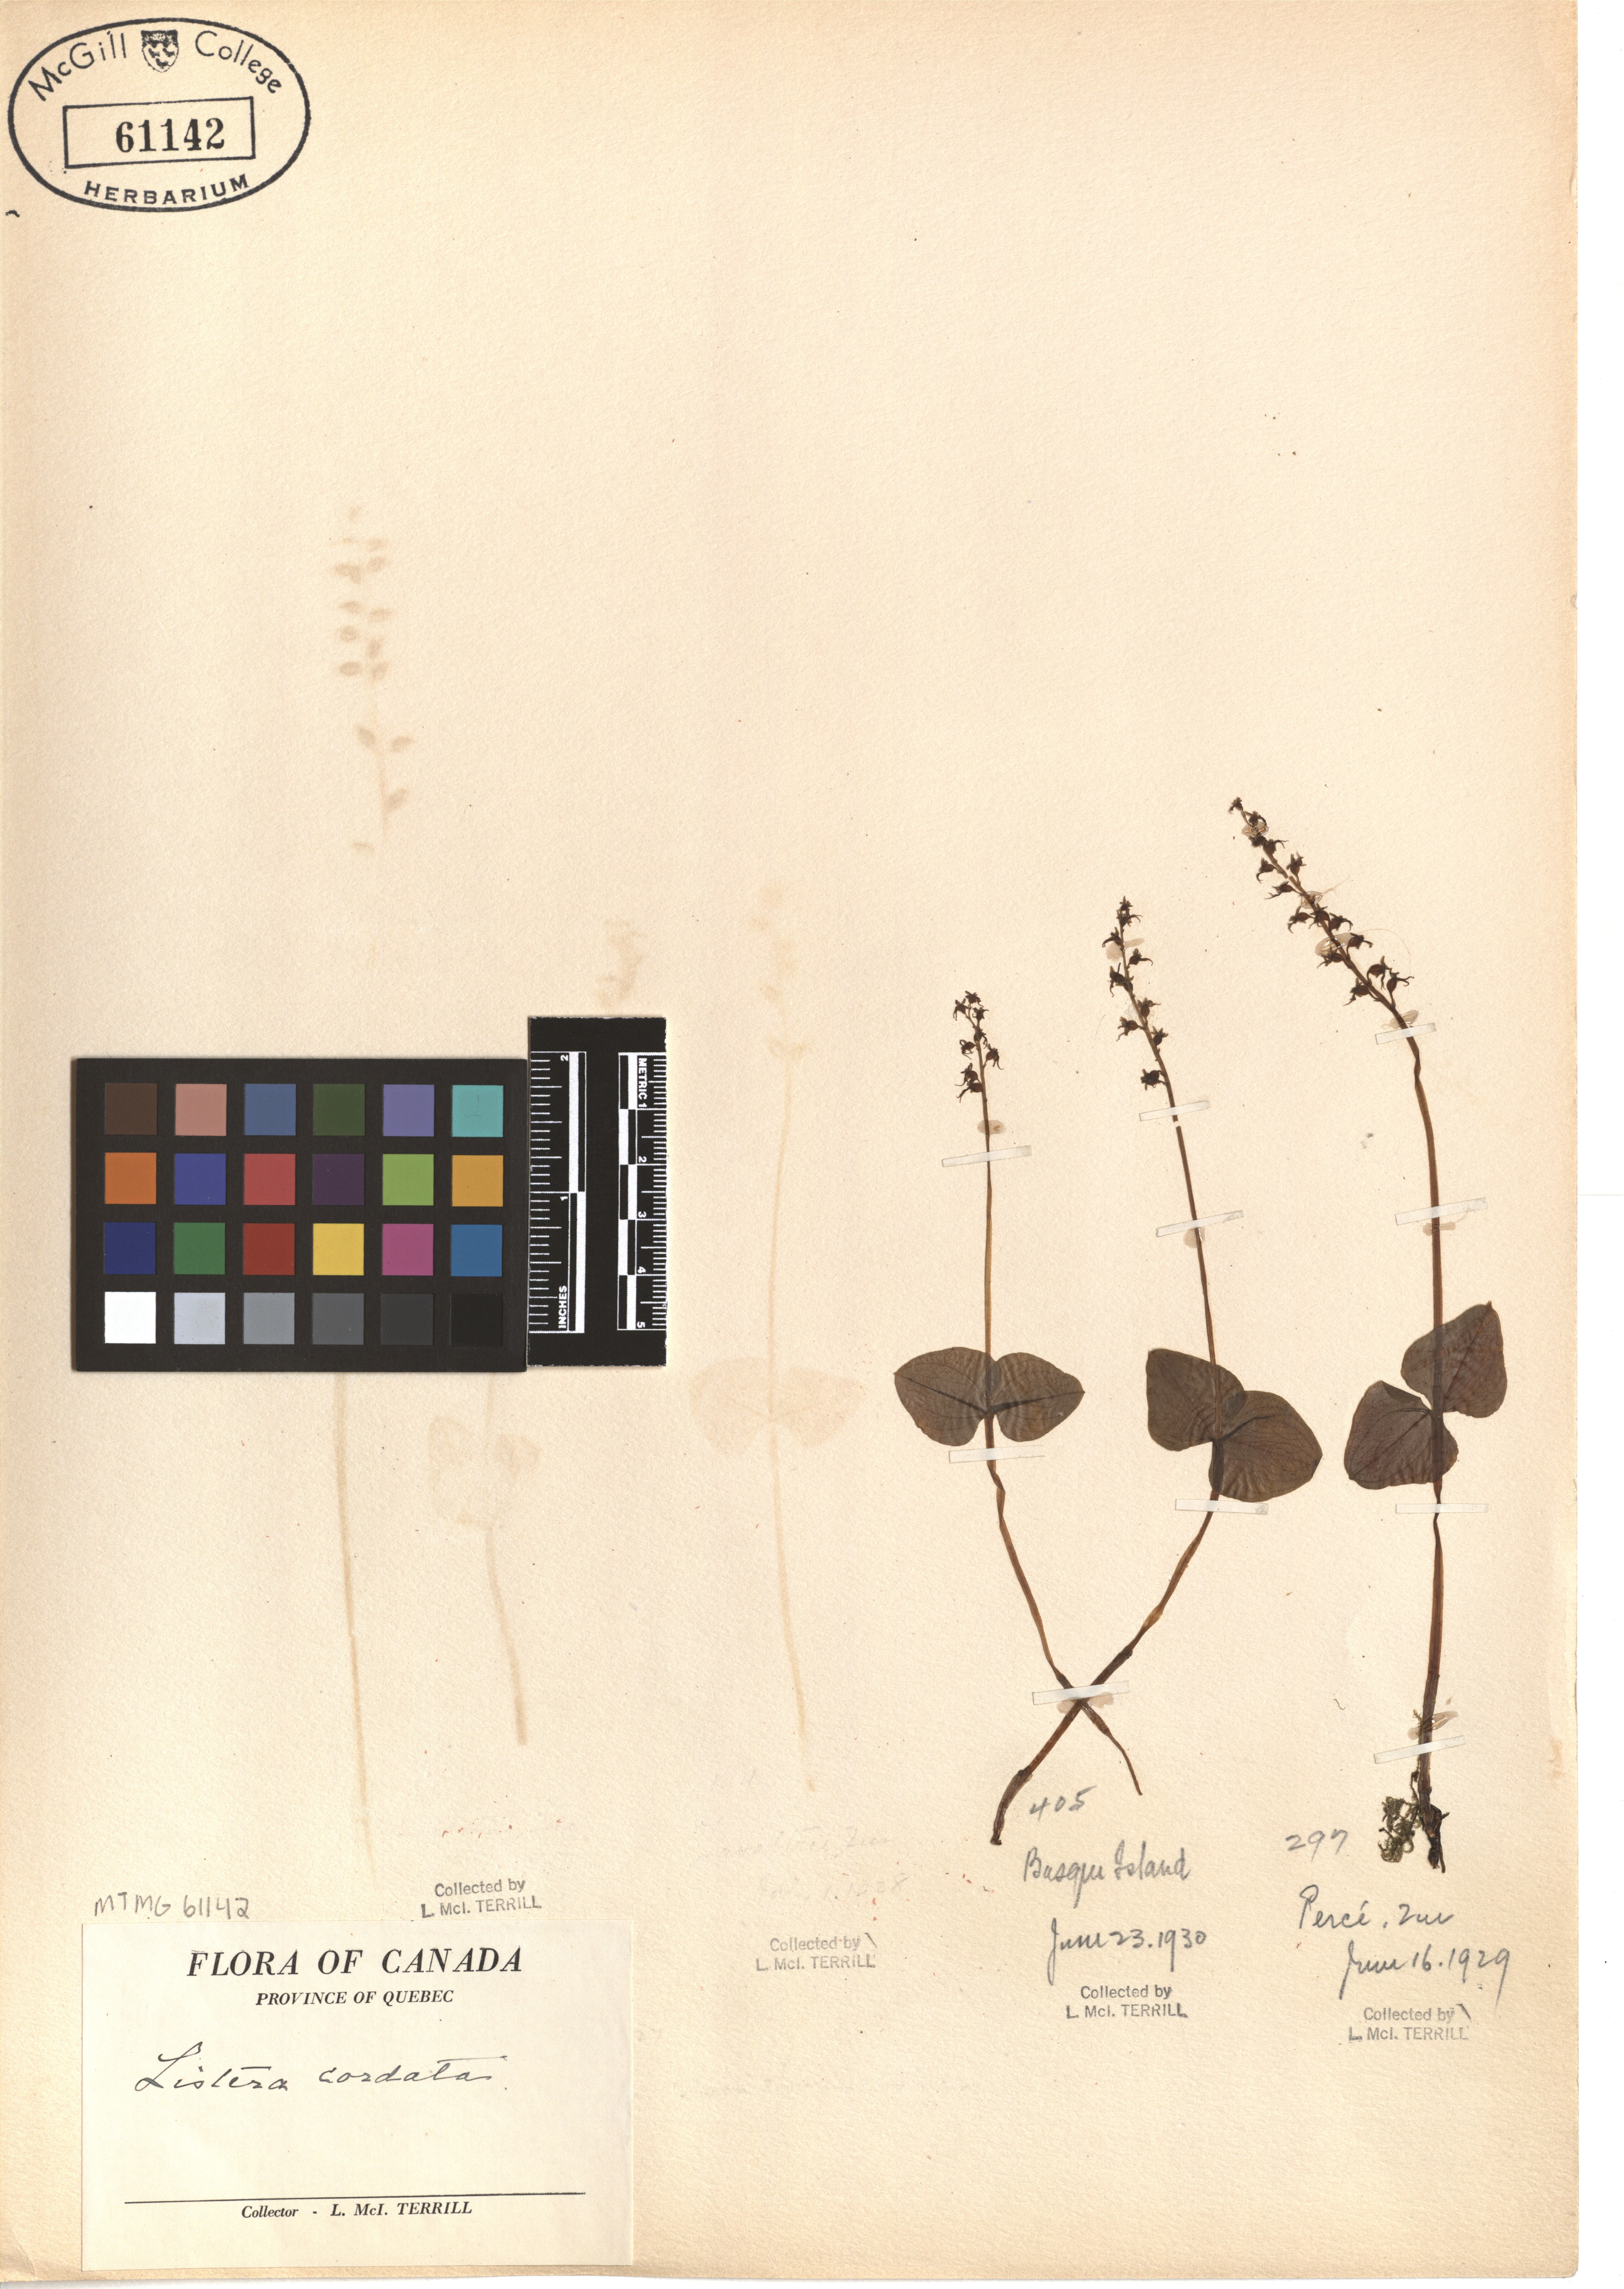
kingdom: Plantae
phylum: Tracheophyta
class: Liliopsida
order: Asparagales
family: Orchidaceae
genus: Neottia
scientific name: Neottia cordata
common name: Lesser twayblade
